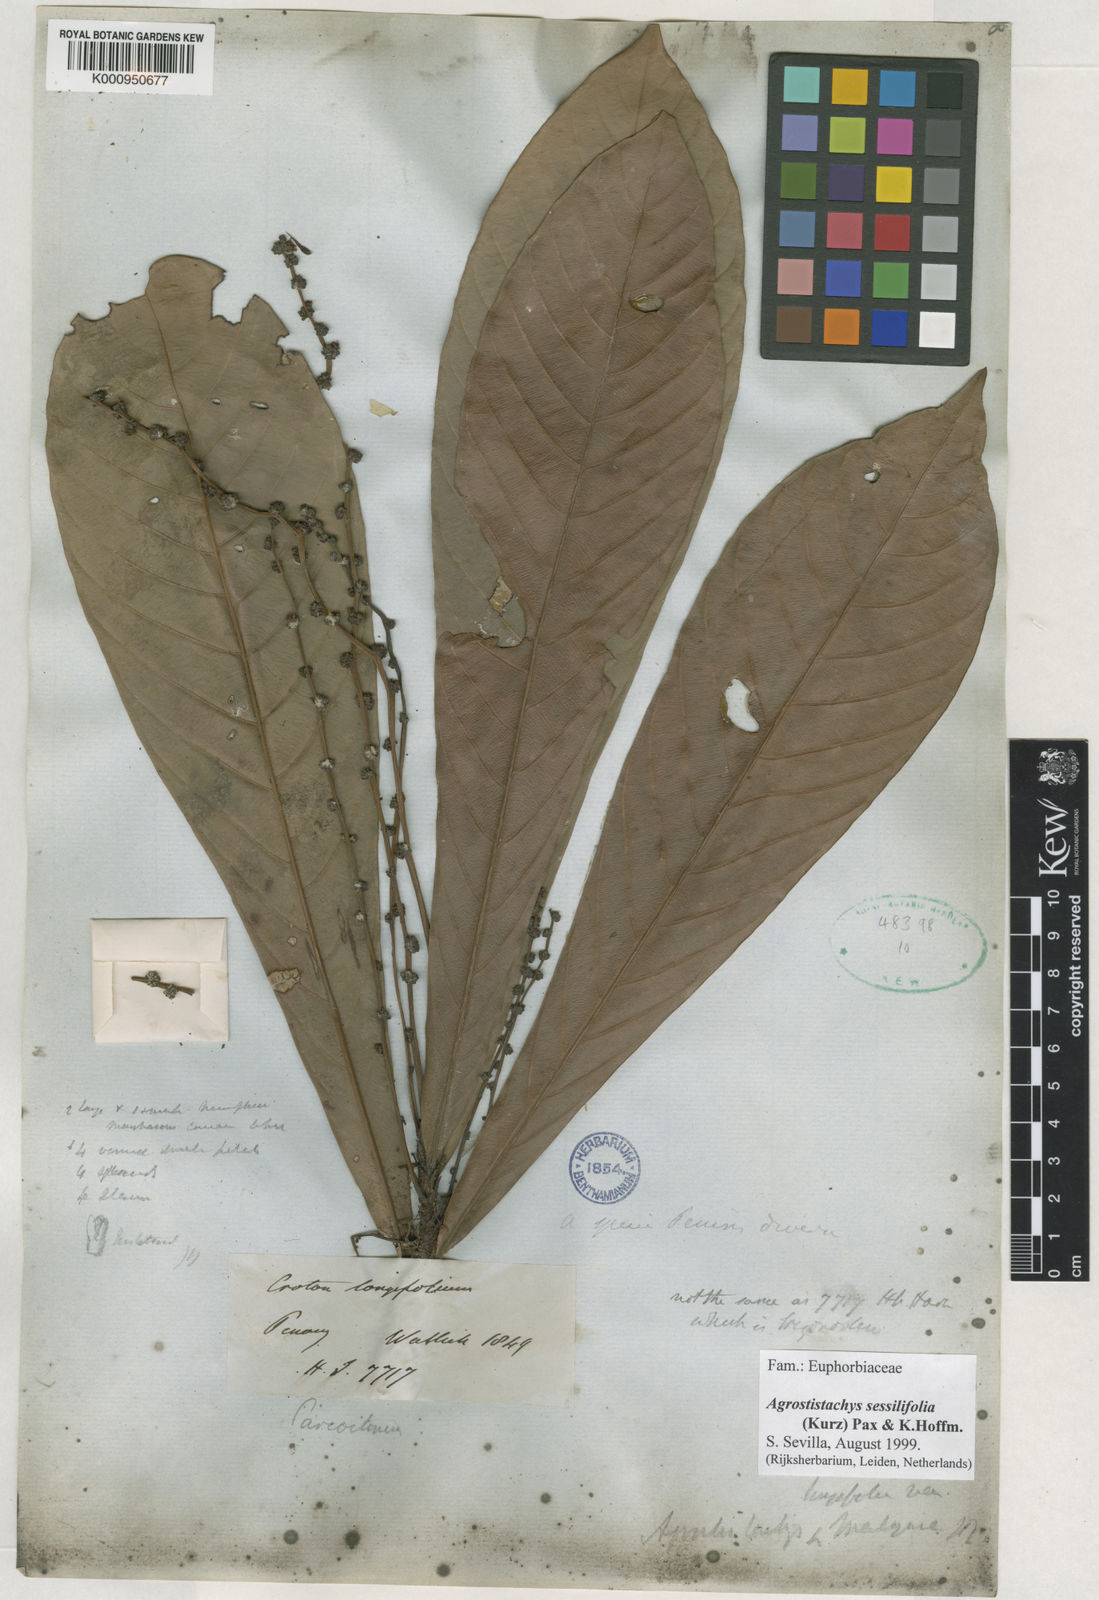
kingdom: Plantae
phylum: Tracheophyta
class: Magnoliopsida
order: Malpighiales
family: Euphorbiaceae
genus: Agrostistachys
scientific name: Agrostistachys sessilifolia
